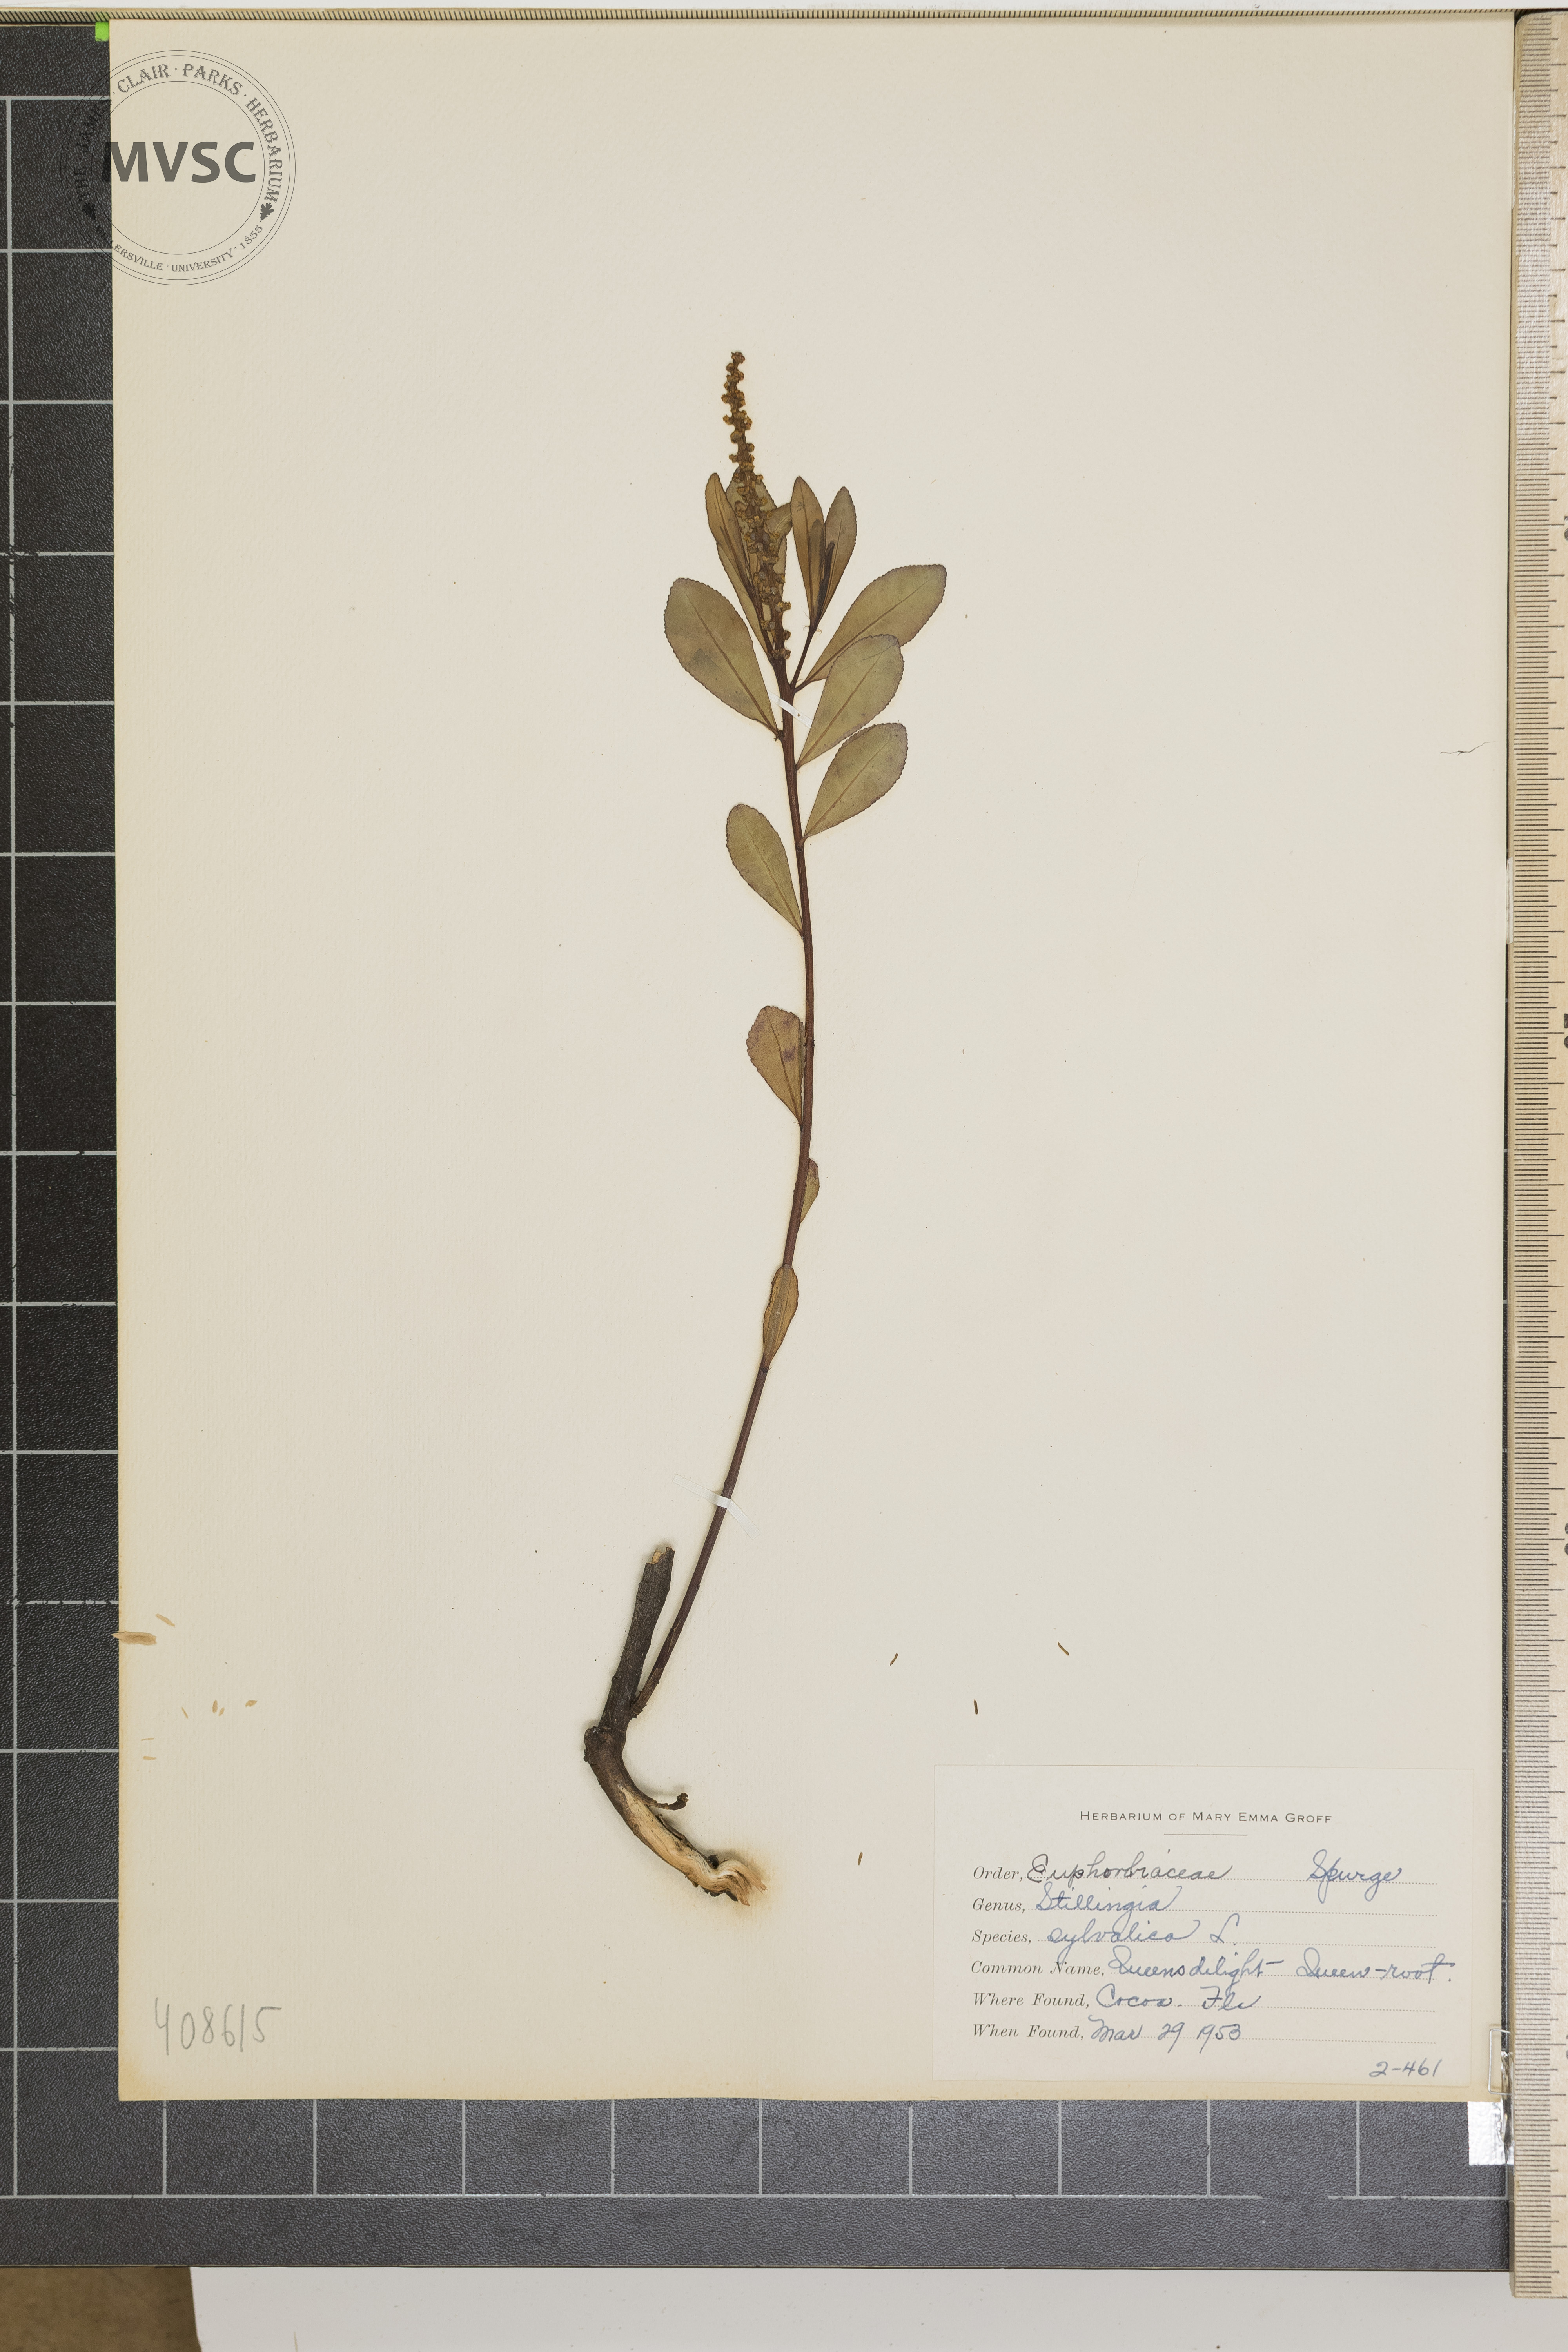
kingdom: Plantae
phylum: Tracheophyta
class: Magnoliopsida
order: Malpighiales
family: Euphorbiaceae
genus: Stillingia
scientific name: Stillingia sylvatica
